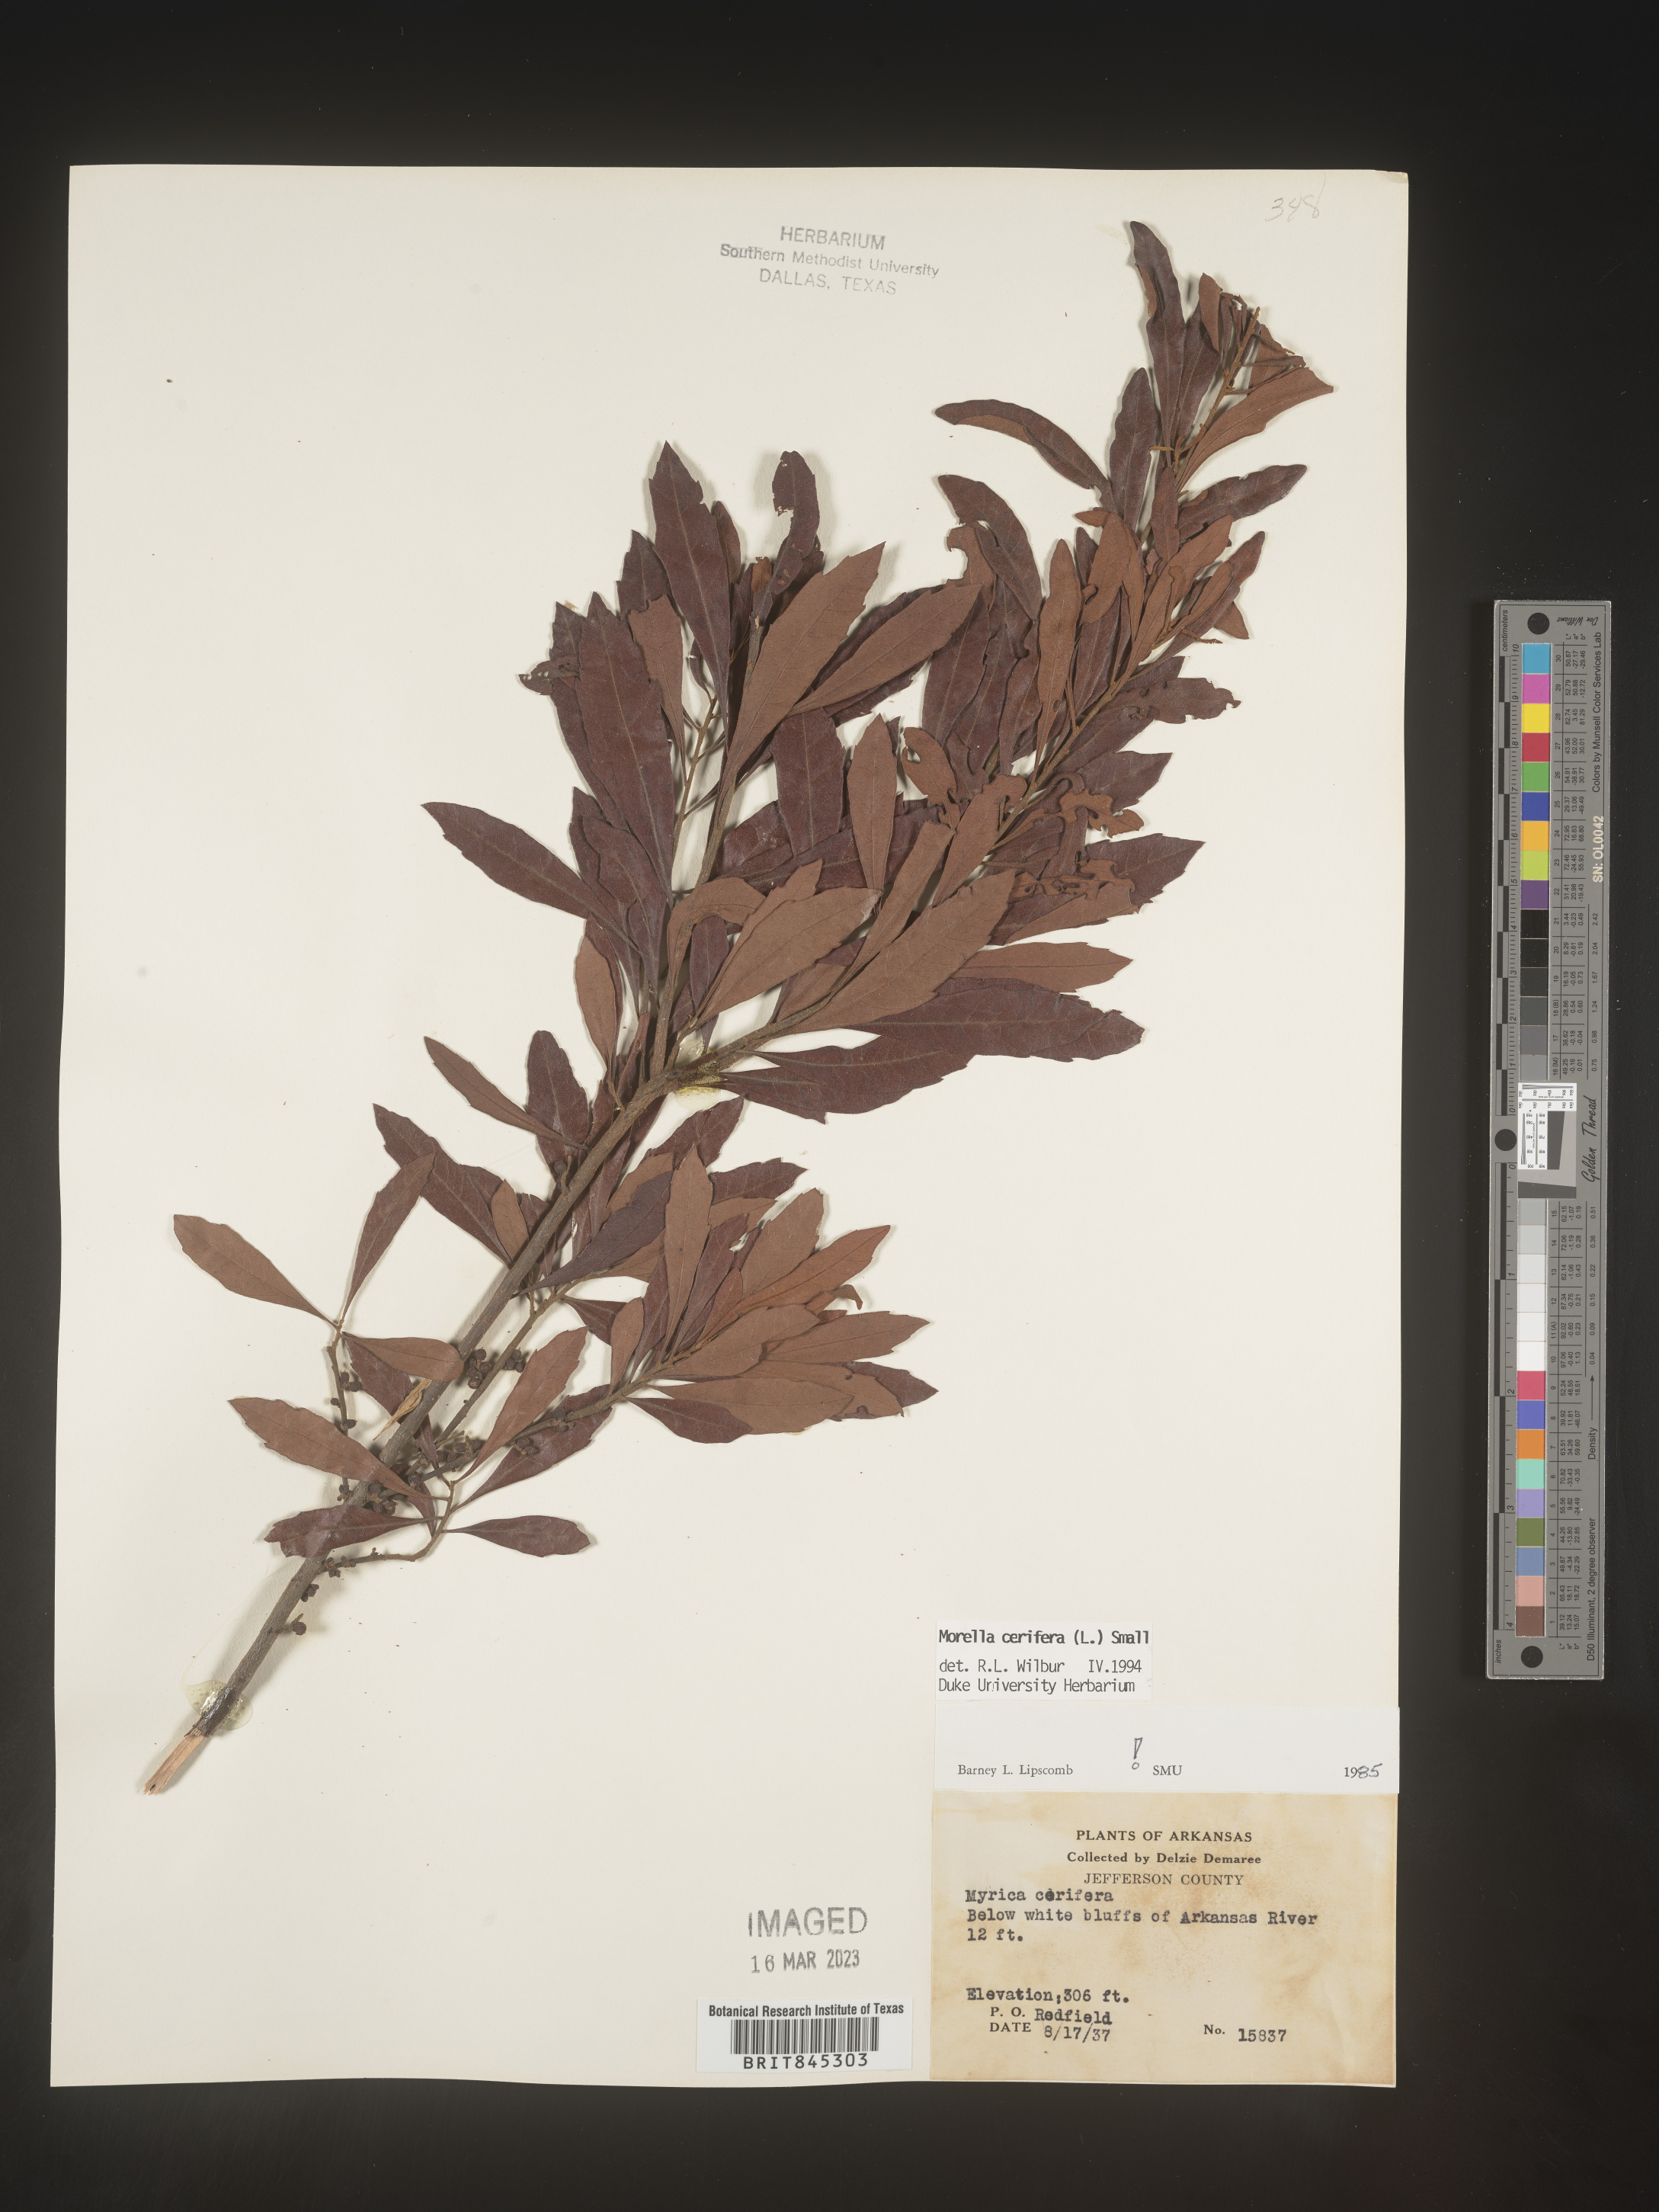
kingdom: Plantae
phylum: Tracheophyta
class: Magnoliopsida
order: Fagales
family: Myricaceae
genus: Morella
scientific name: Morella cerifera
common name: Wax myrtle
